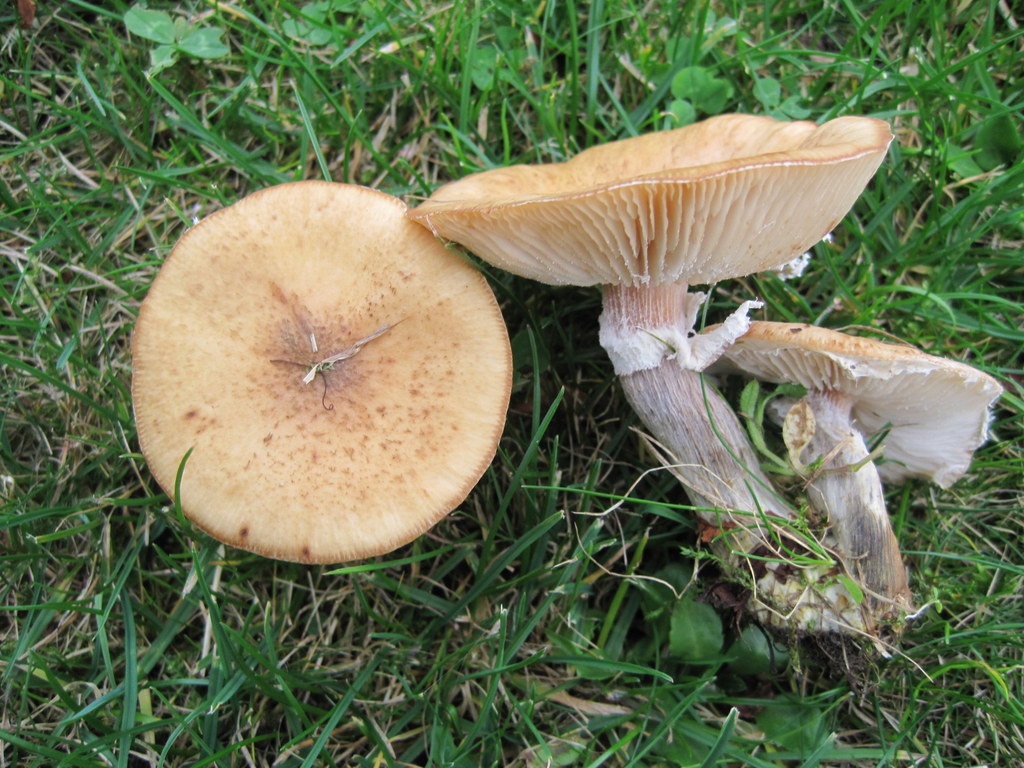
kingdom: Fungi
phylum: Basidiomycota
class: Agaricomycetes
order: Agaricales
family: Physalacriaceae
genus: Armillaria
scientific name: Armillaria lutea
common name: køllestokket honningsvamp
